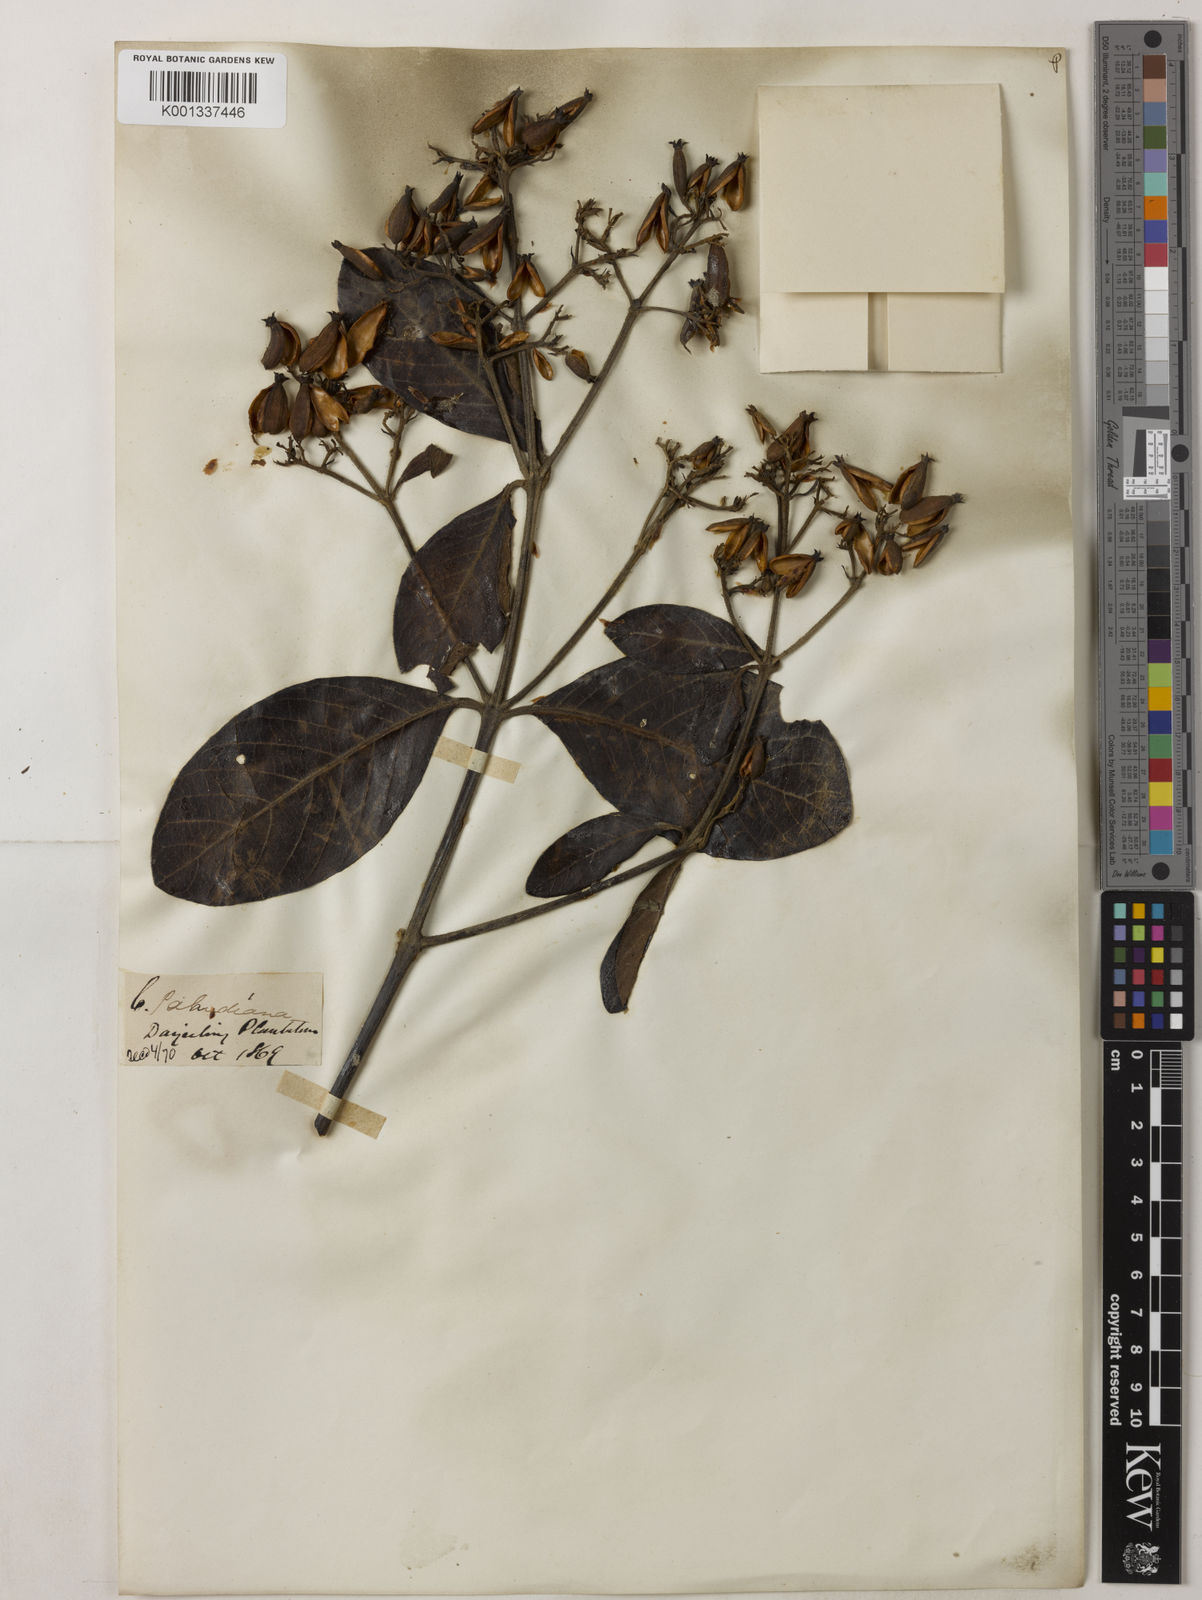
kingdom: Plantae
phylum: Tracheophyta
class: Magnoliopsida
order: Gentianales
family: Rubiaceae
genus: Cinchona
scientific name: Cinchona calisaya
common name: Ledgerbark
